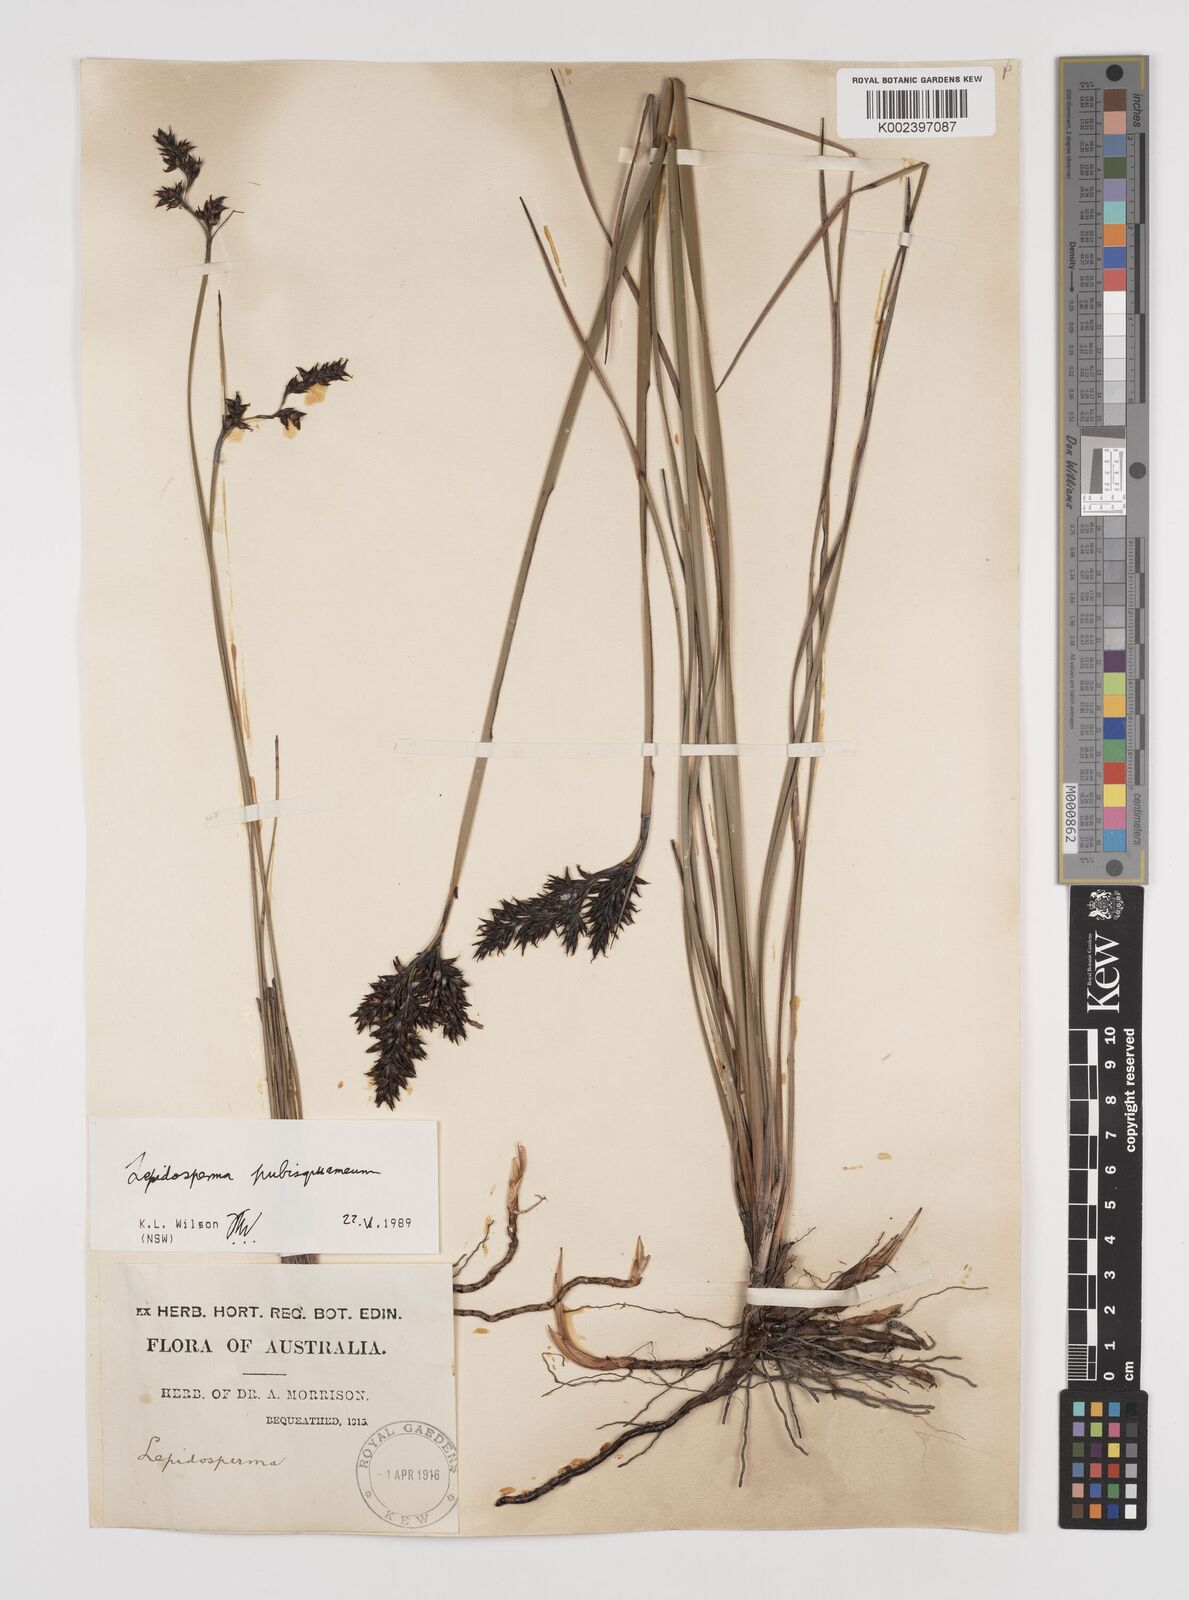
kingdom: Plantae
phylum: Tracheophyta
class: Liliopsida
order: Poales
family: Cyperaceae
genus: Lepidosperma
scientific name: Lepidosperma pubisquameum
